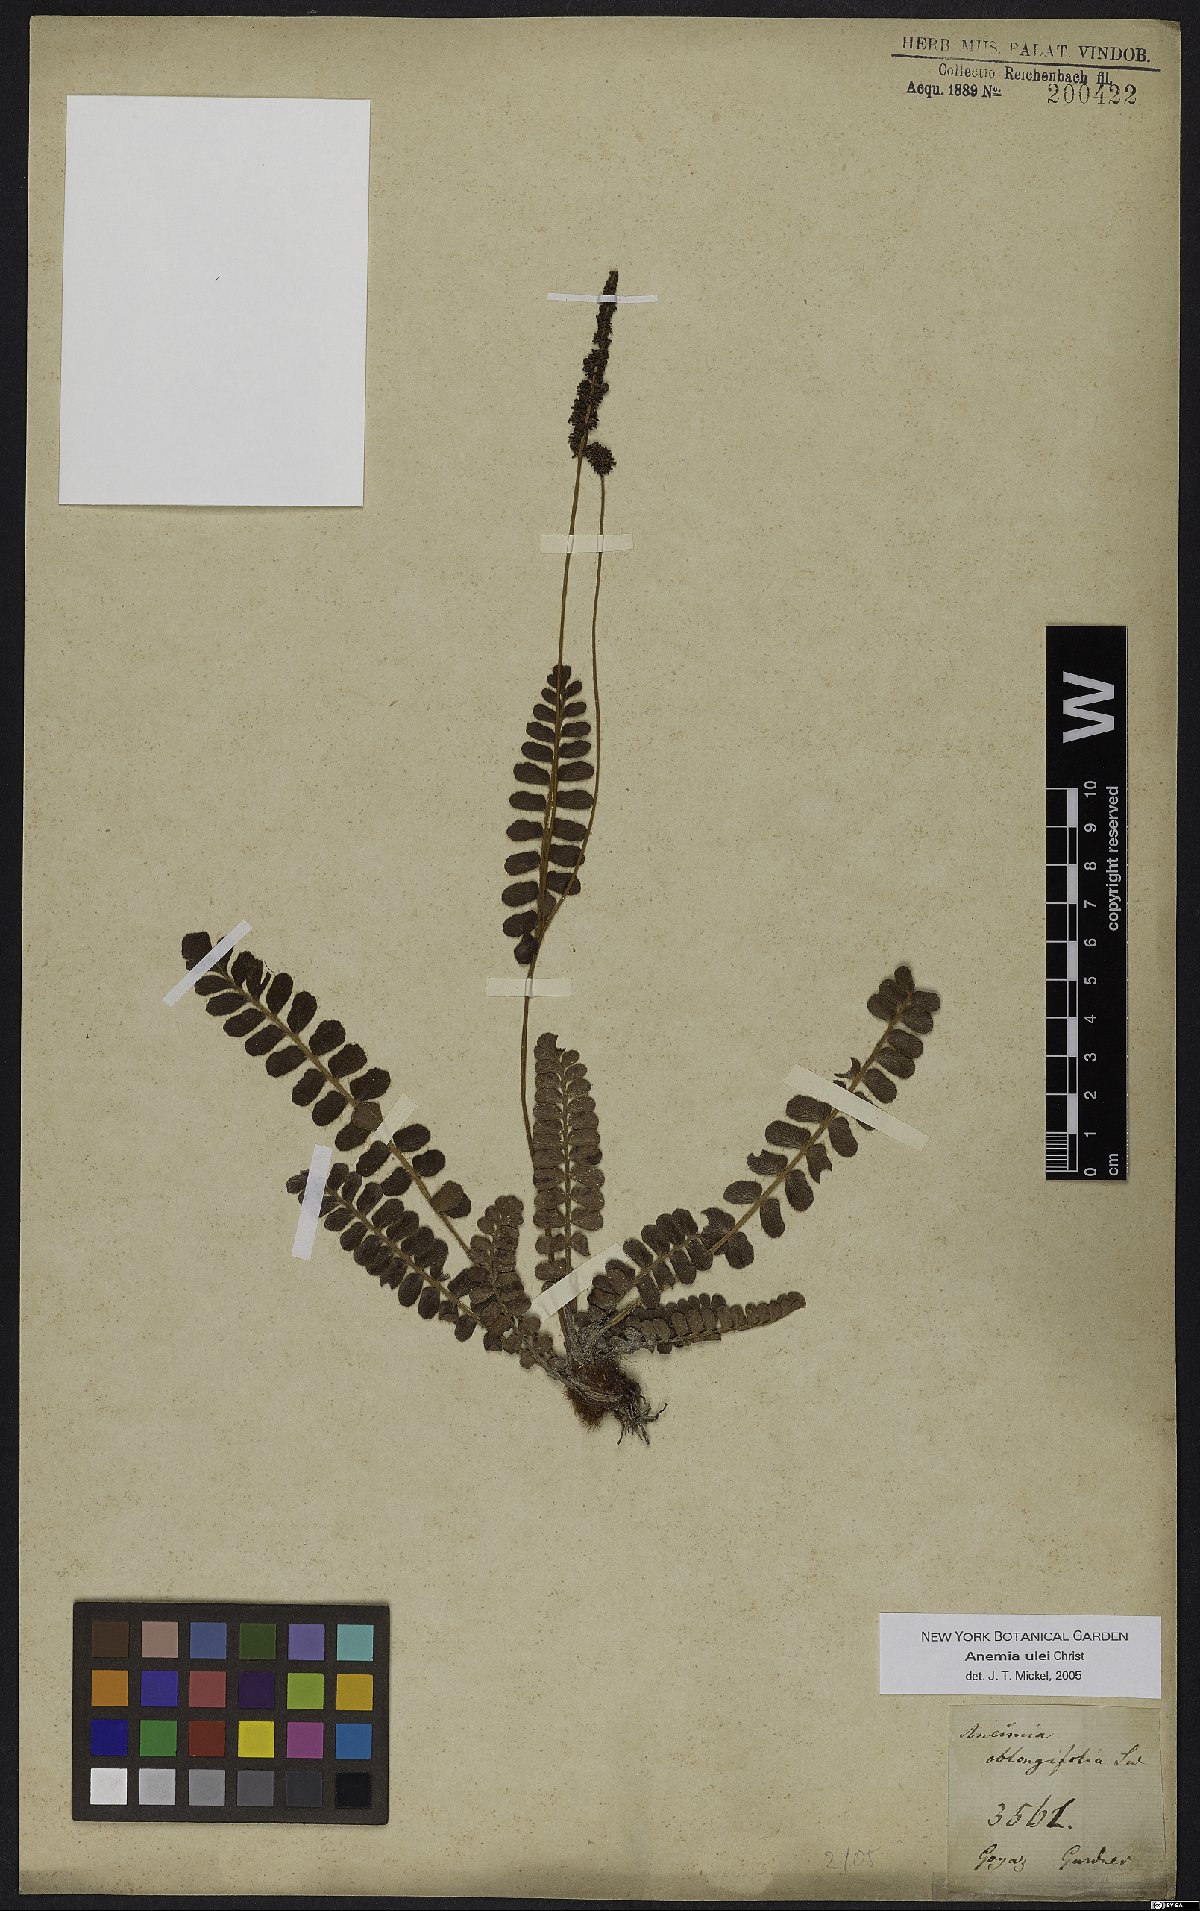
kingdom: Plantae
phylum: Tracheophyta
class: Polypodiopsida
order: Schizaeales
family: Anemiaceae
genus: Anemia
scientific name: Anemia oblongifolia
